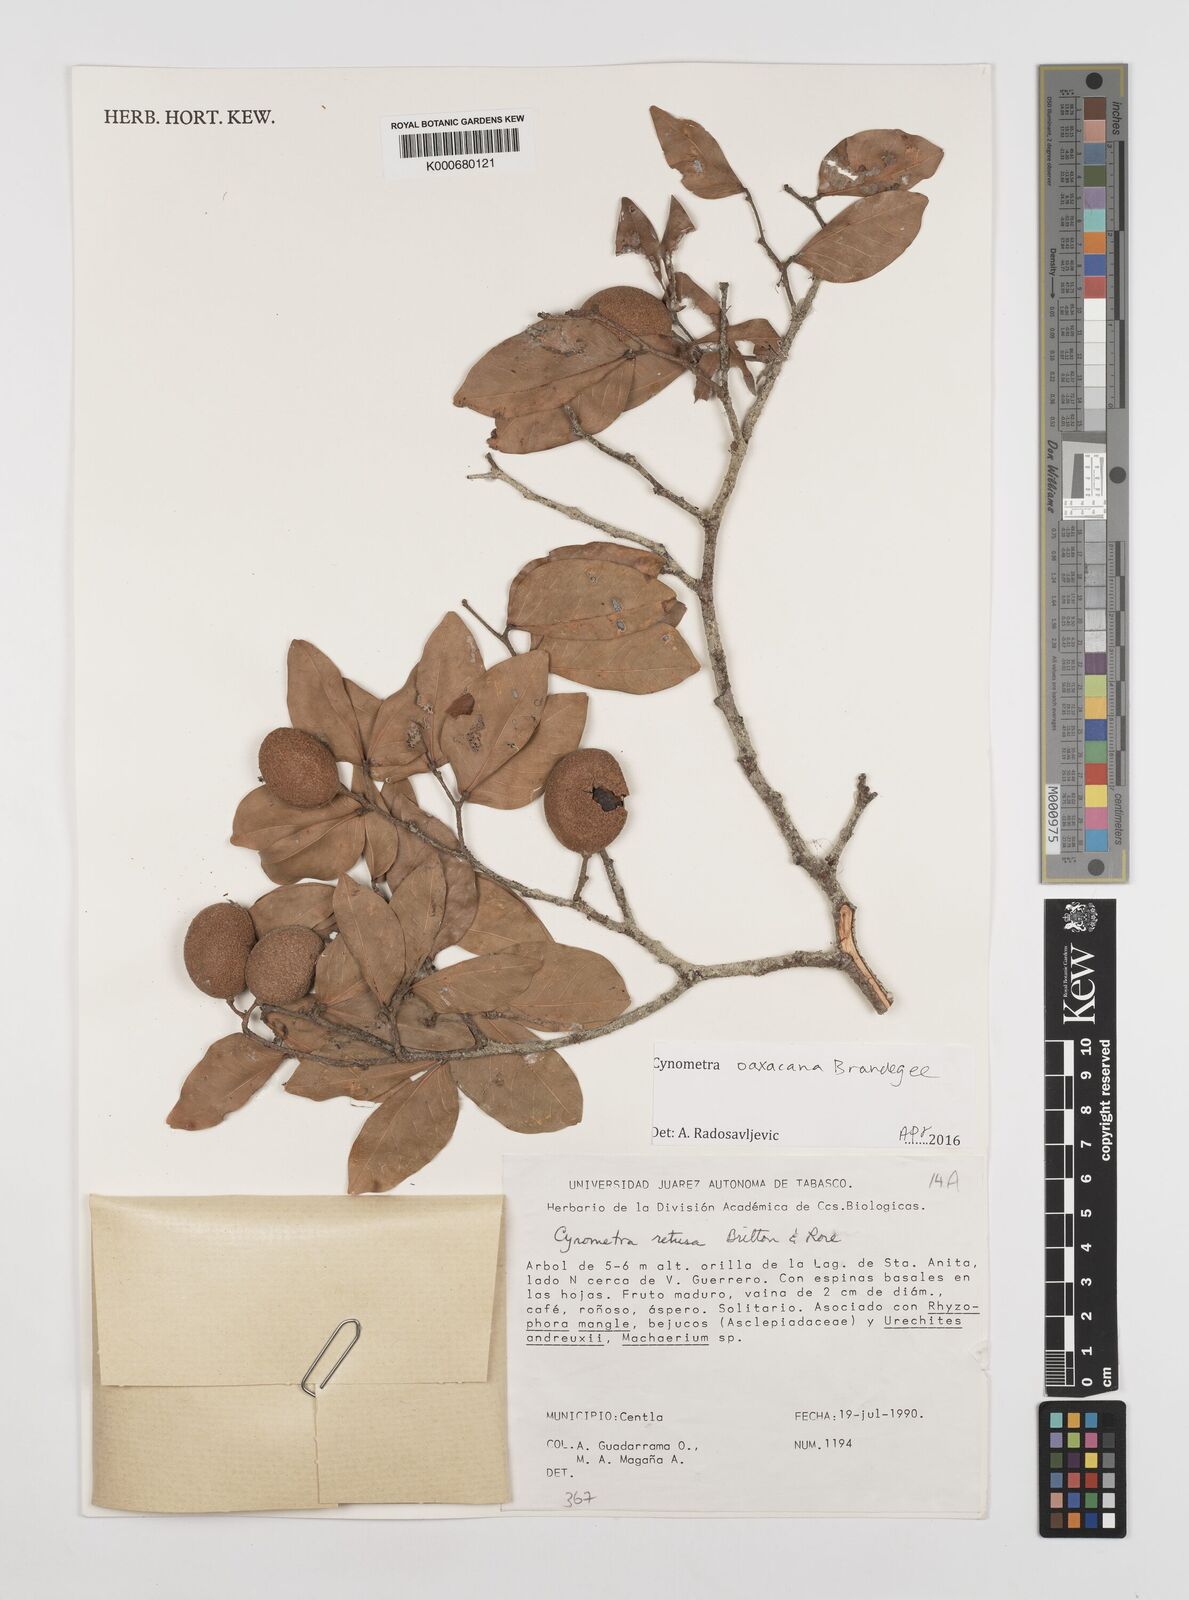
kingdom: Plantae
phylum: Tracheophyta
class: Magnoliopsida
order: Fabales
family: Fabaceae
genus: Cynometra
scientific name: Cynometra oaxacana
